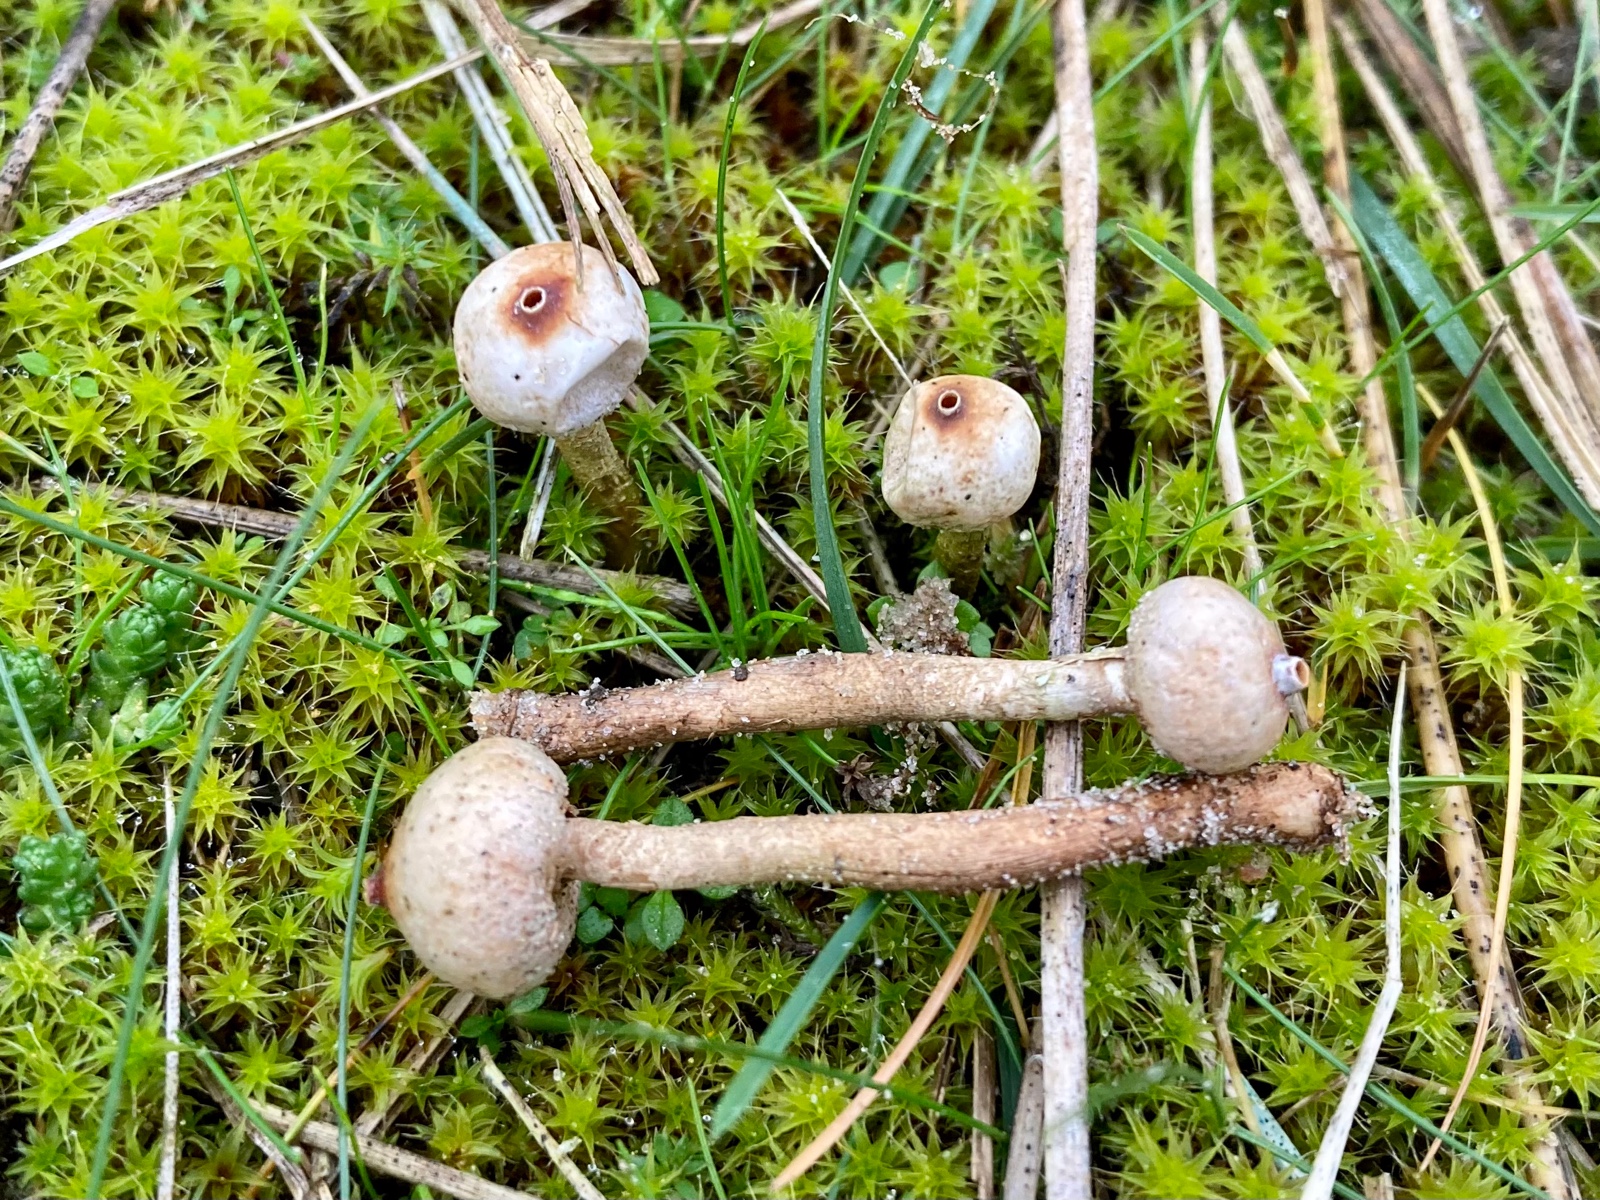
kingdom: Fungi
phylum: Basidiomycota
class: Agaricomycetes
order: Agaricales
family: Agaricaceae
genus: Tulostoma
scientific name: Tulostoma brumale
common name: vinter-stilkbovist
